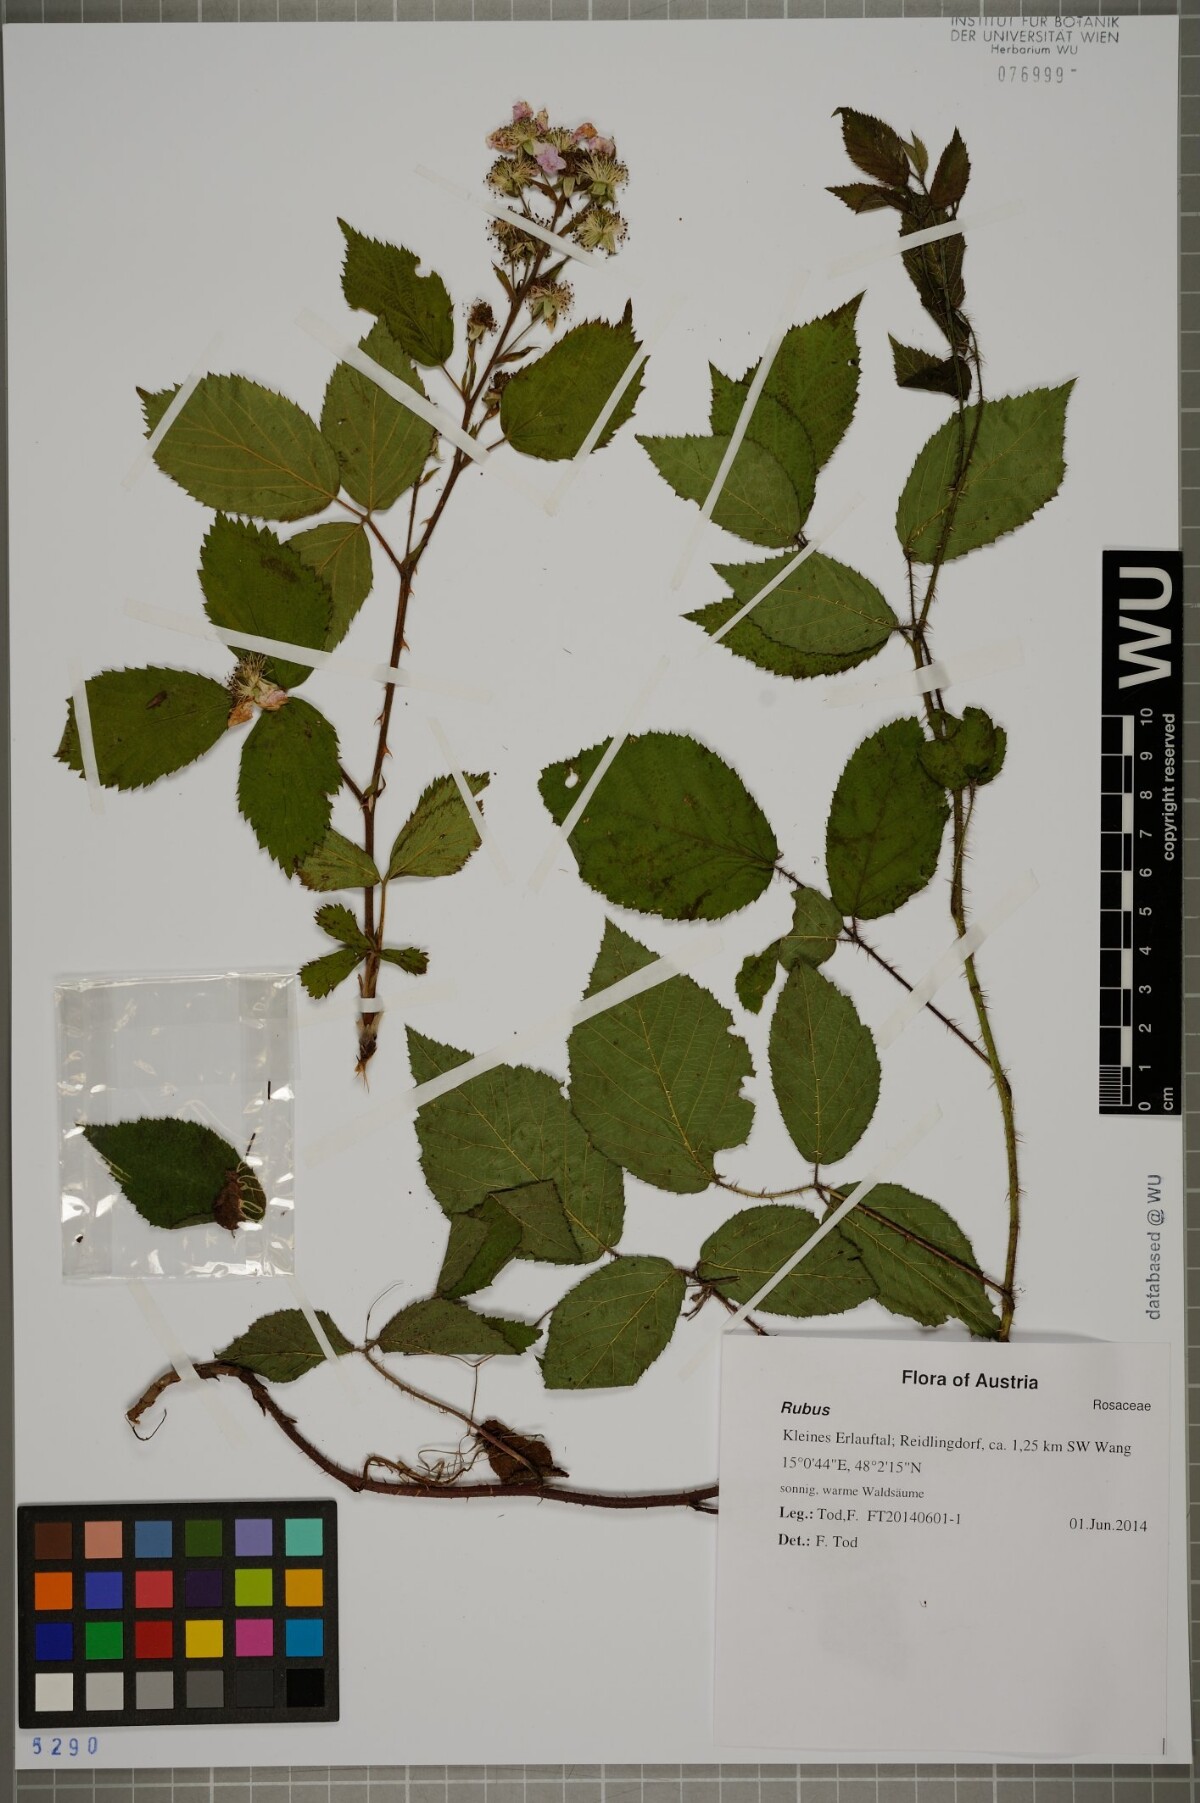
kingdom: Plantae
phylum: Tracheophyta
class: Magnoliopsida
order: Rosales
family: Rosaceae
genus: Rubus
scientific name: Rubus
